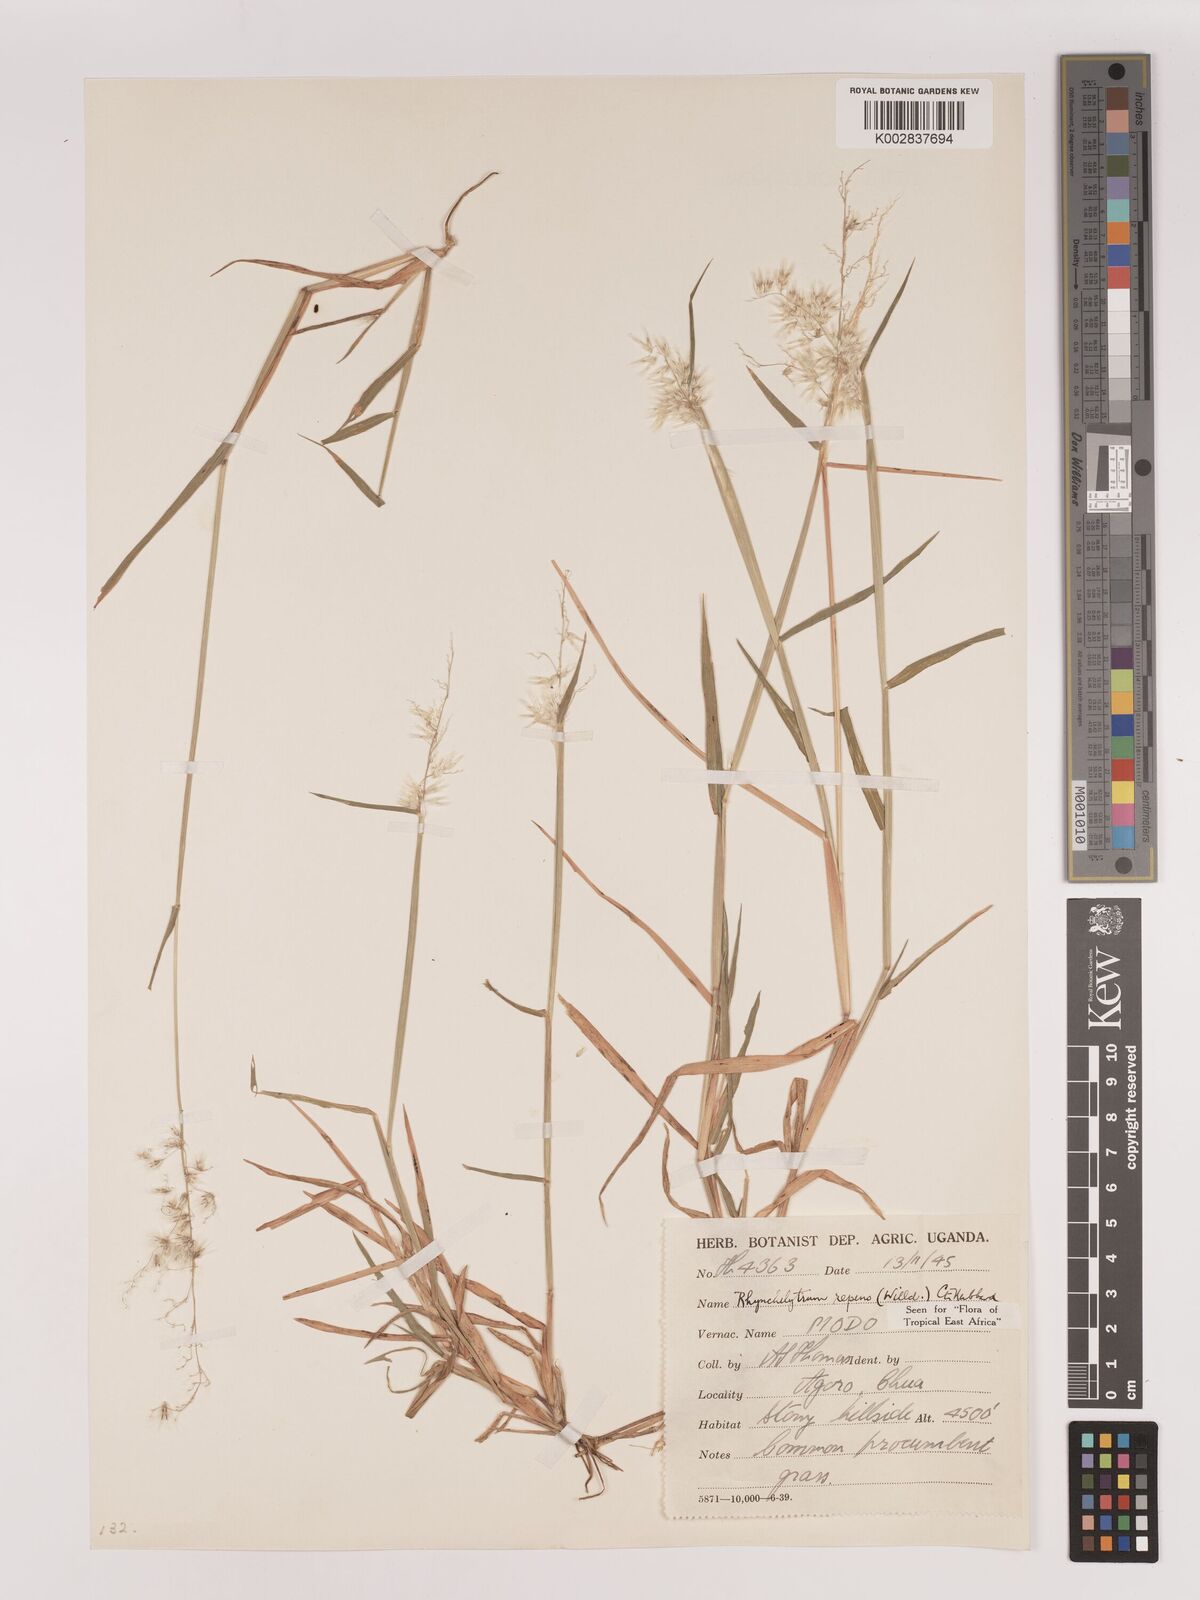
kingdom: Plantae
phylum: Tracheophyta
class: Liliopsida
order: Poales
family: Poaceae
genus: Melinis
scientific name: Melinis repens
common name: Rose natal grass
